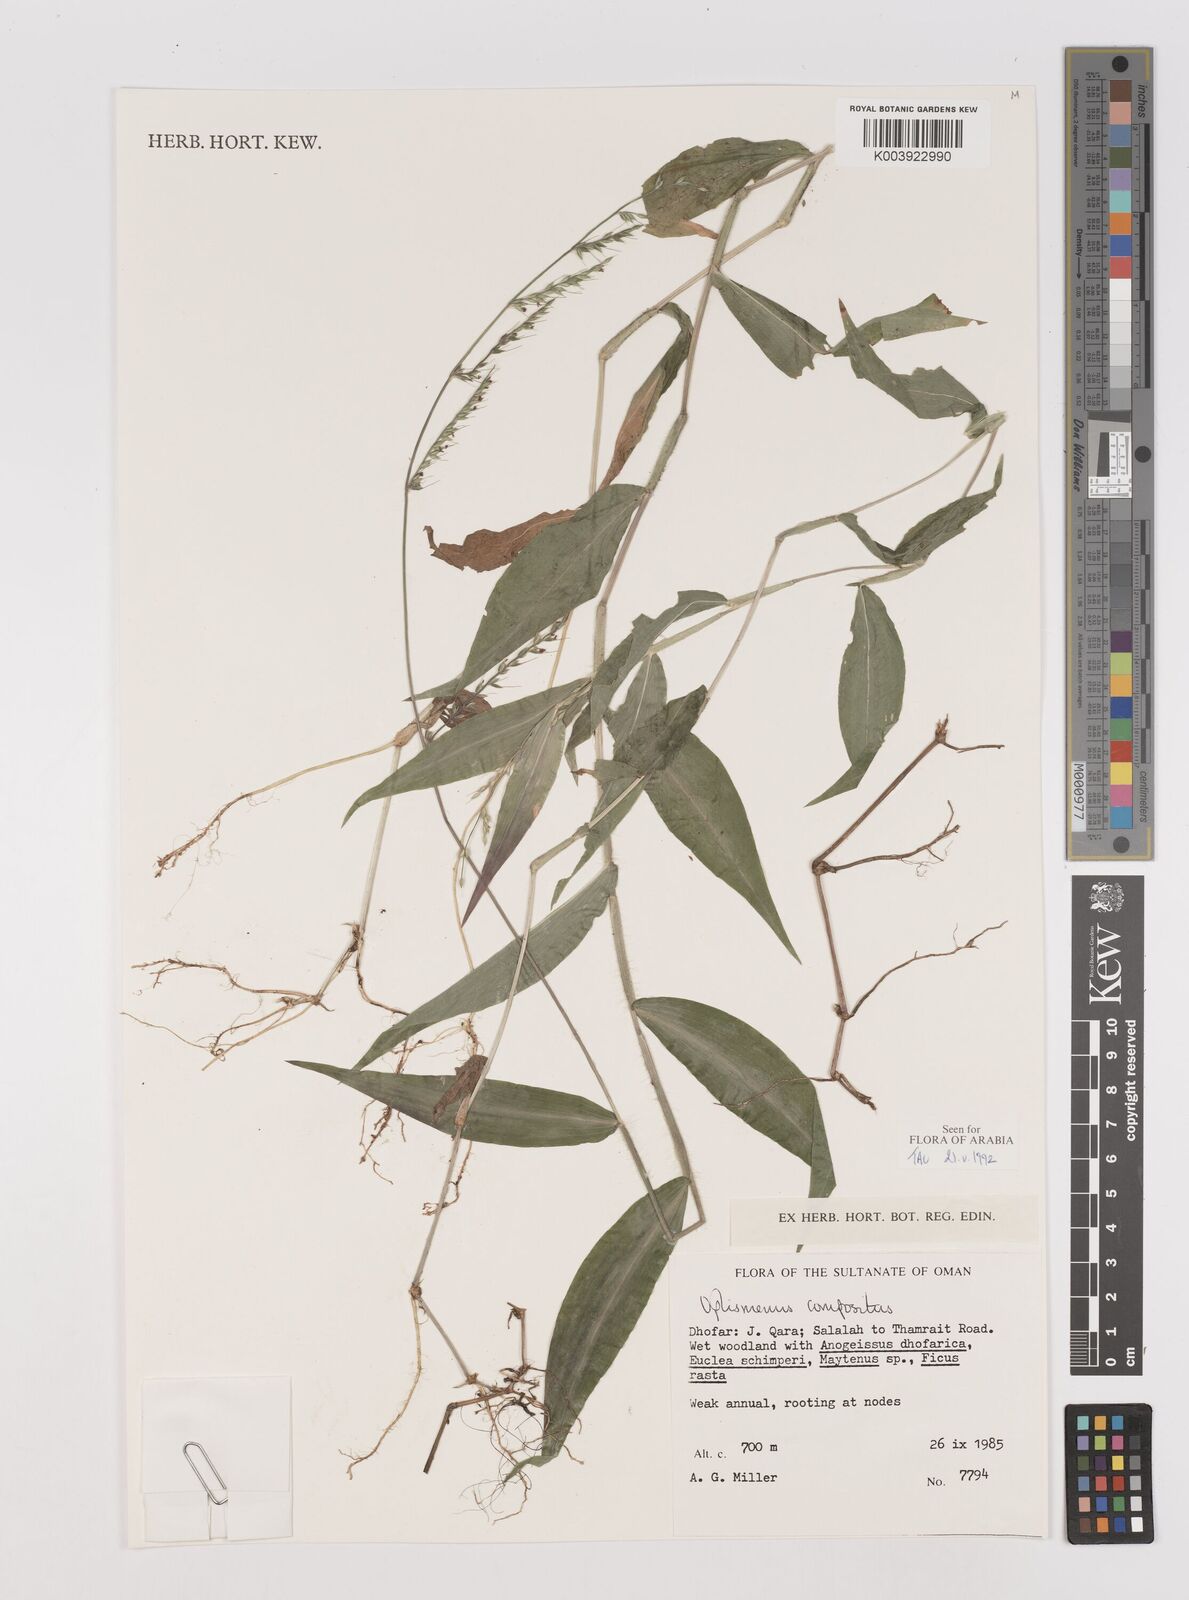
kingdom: Plantae
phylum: Tracheophyta
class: Liliopsida
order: Poales
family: Poaceae
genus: Oplismenus
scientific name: Oplismenus compositus
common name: Running mountain grass
